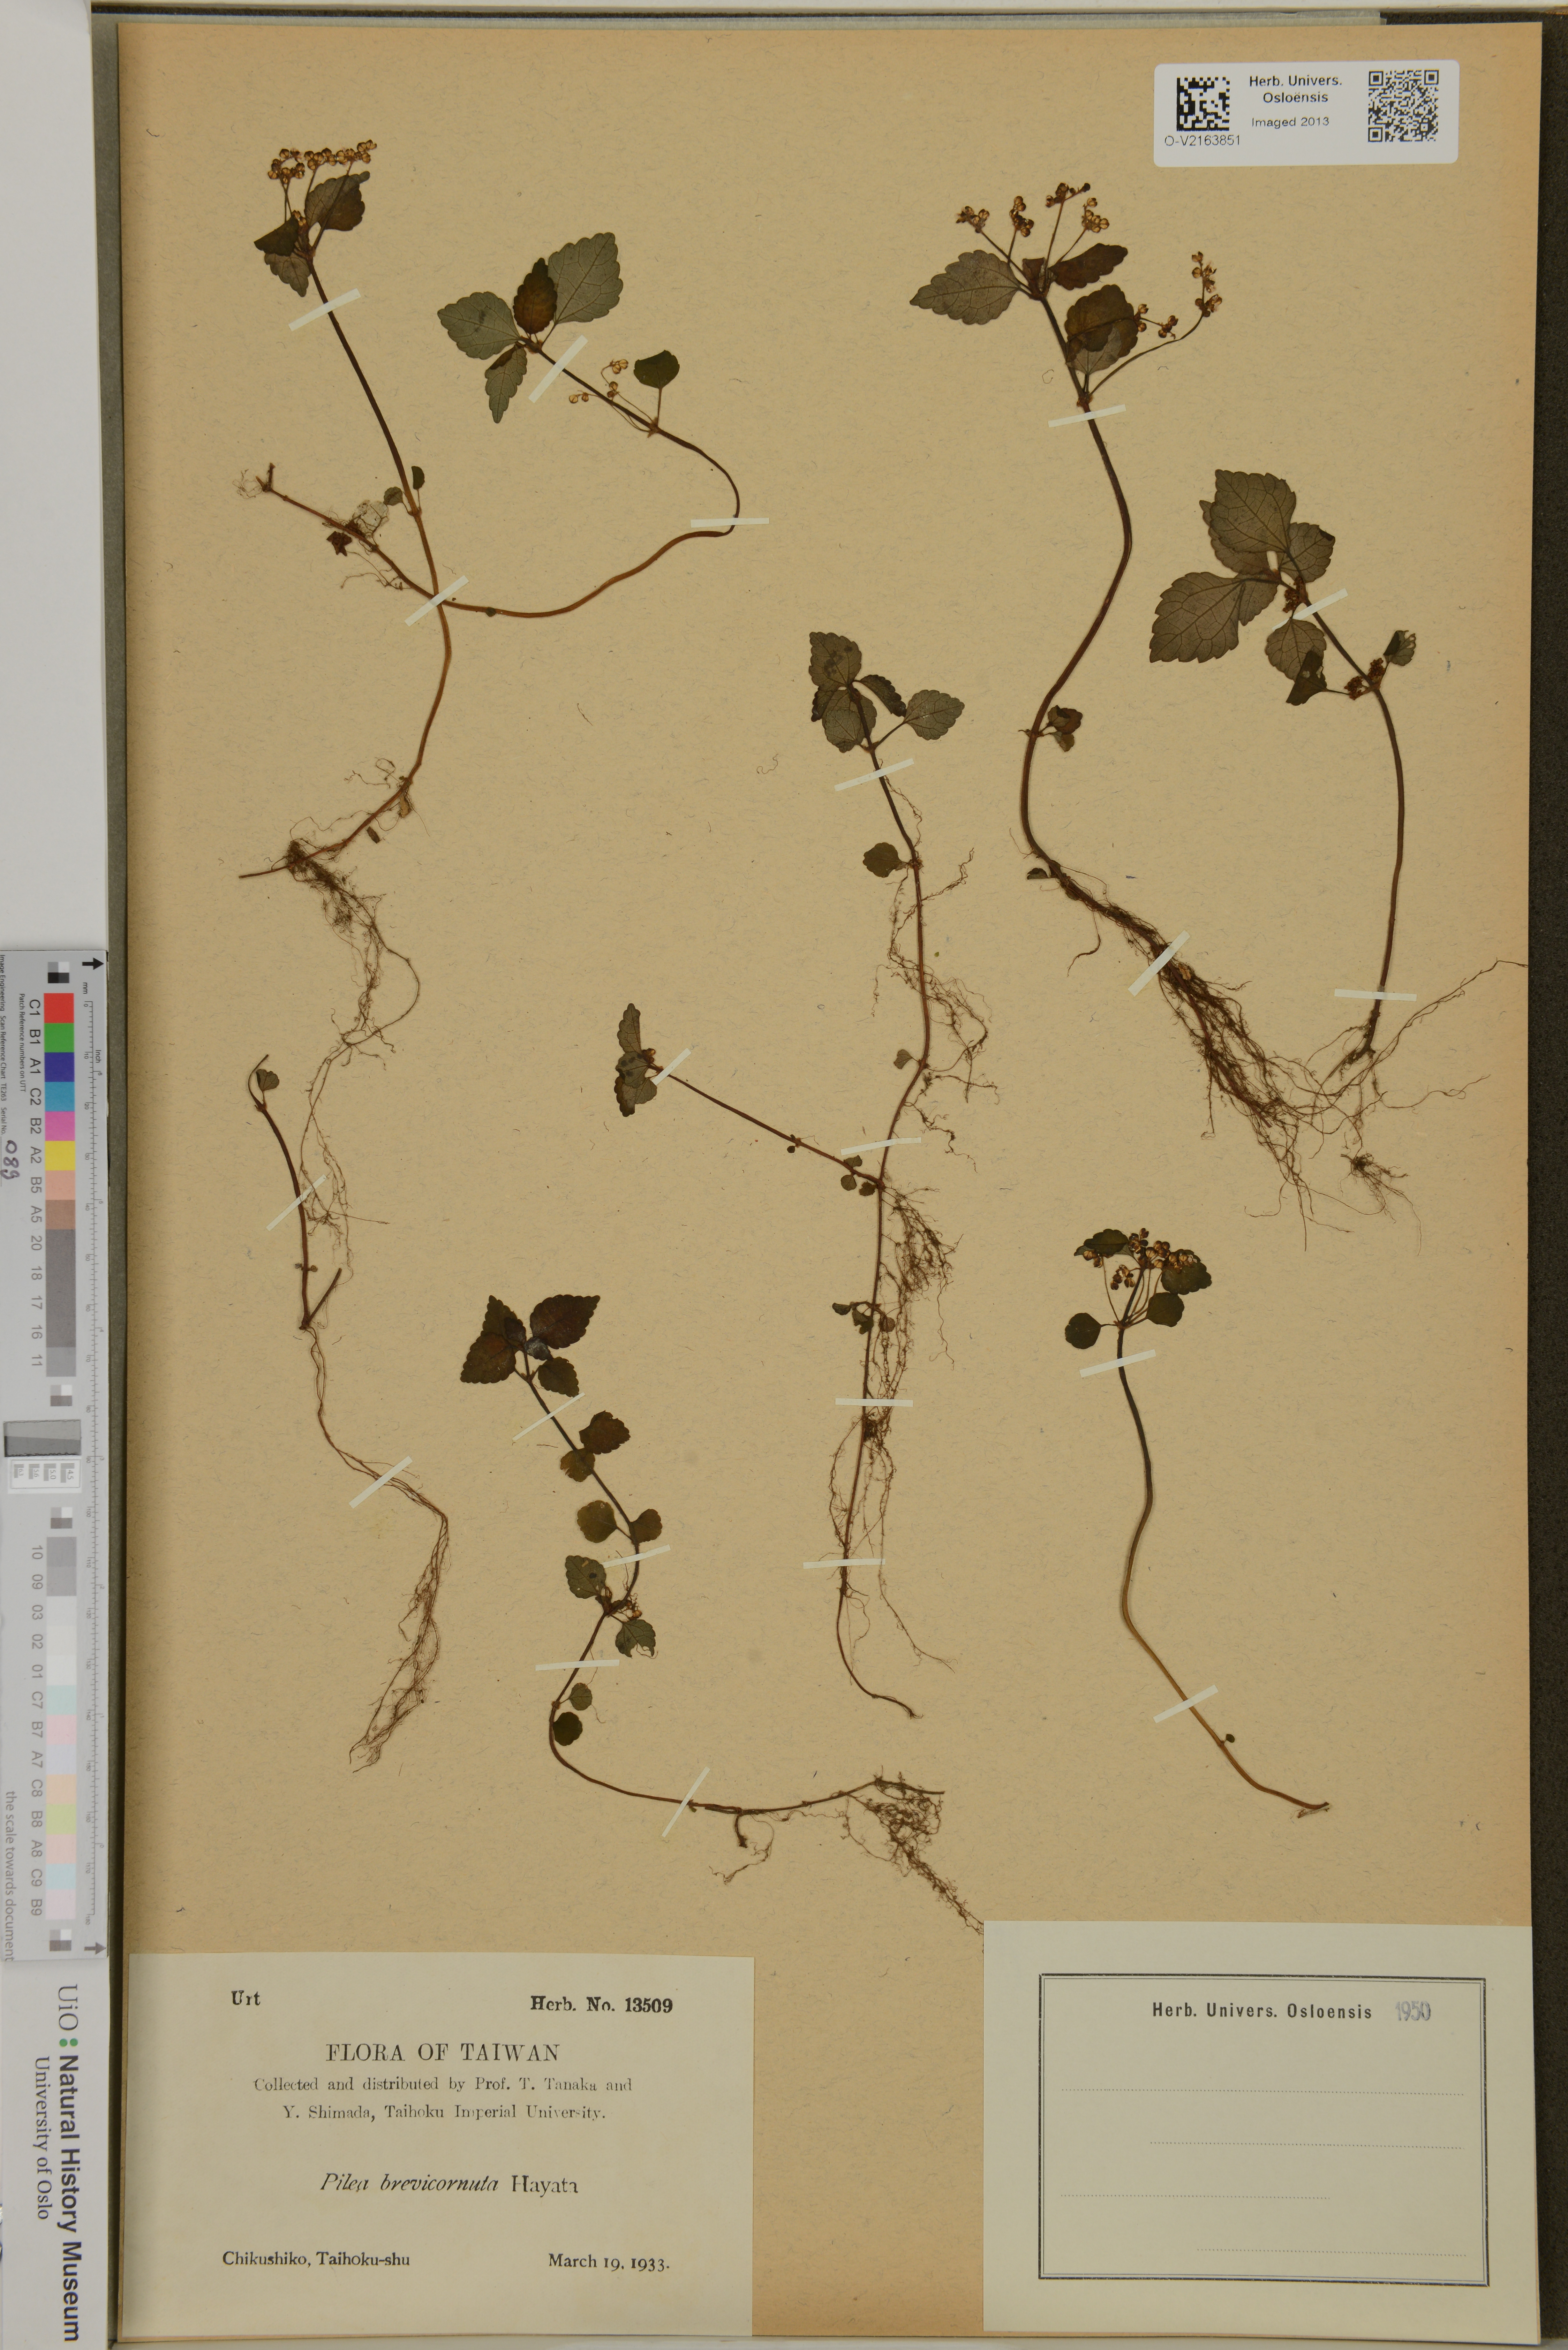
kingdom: Plantae
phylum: Tracheophyta
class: Magnoliopsida
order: Rosales
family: Urticaceae
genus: Pilea
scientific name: Pilea brevicornuta
